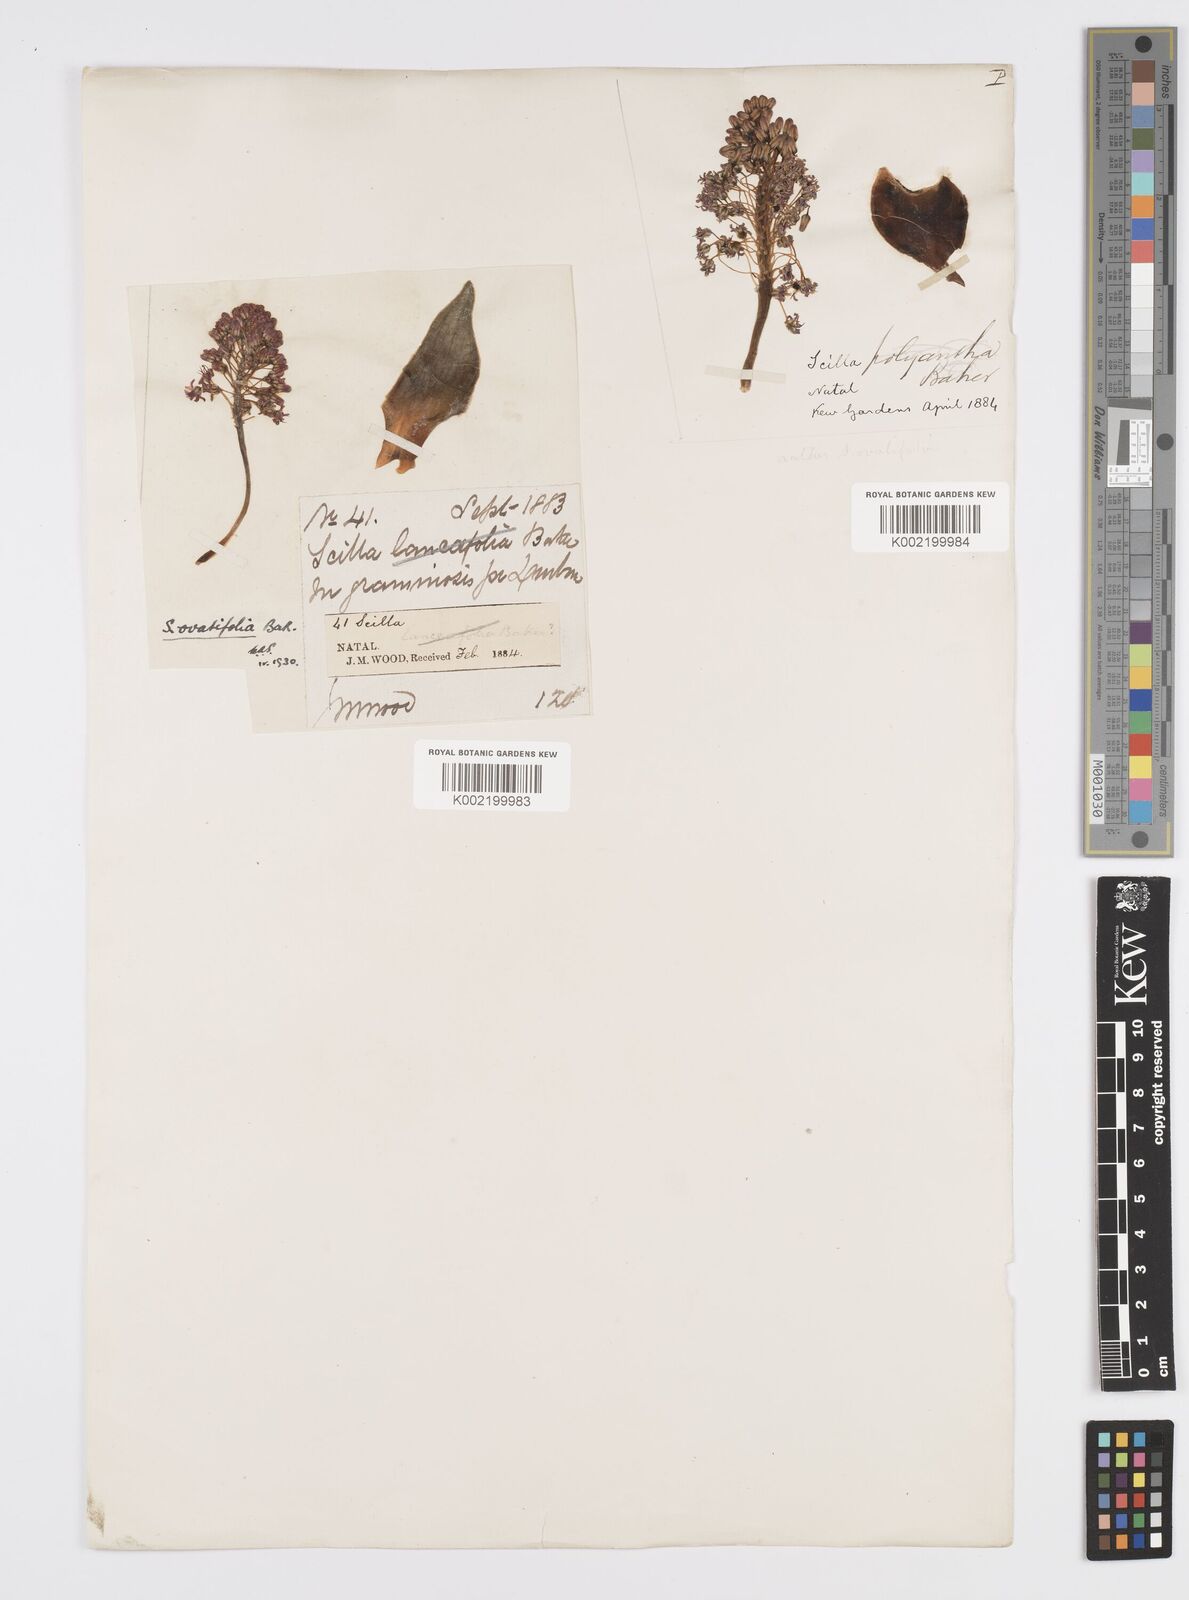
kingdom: Plantae
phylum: Tracheophyta
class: Liliopsida
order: Asparagales
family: Asparagaceae
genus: Ledebouria
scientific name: Ledebouria ovatifolia
